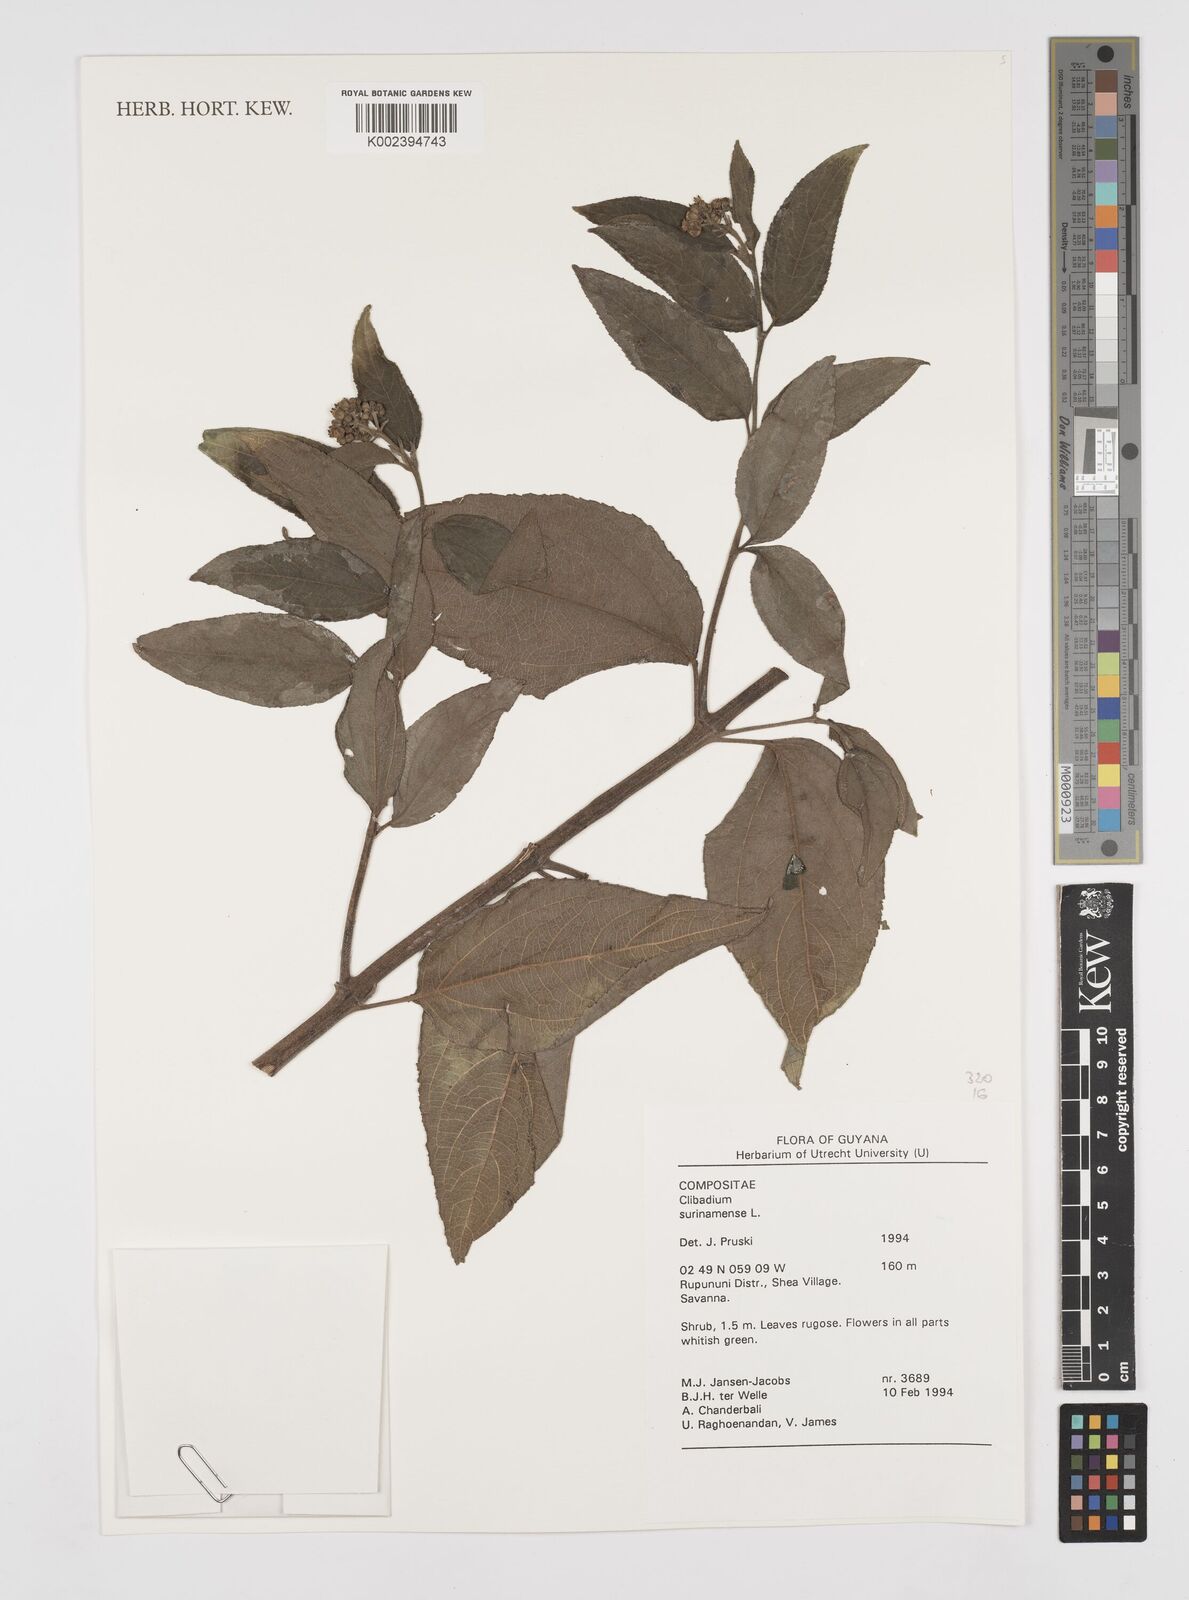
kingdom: Plantae
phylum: Tracheophyta
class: Magnoliopsida
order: Asterales
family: Asteraceae
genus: Clibadium
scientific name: Clibadium surinamense
